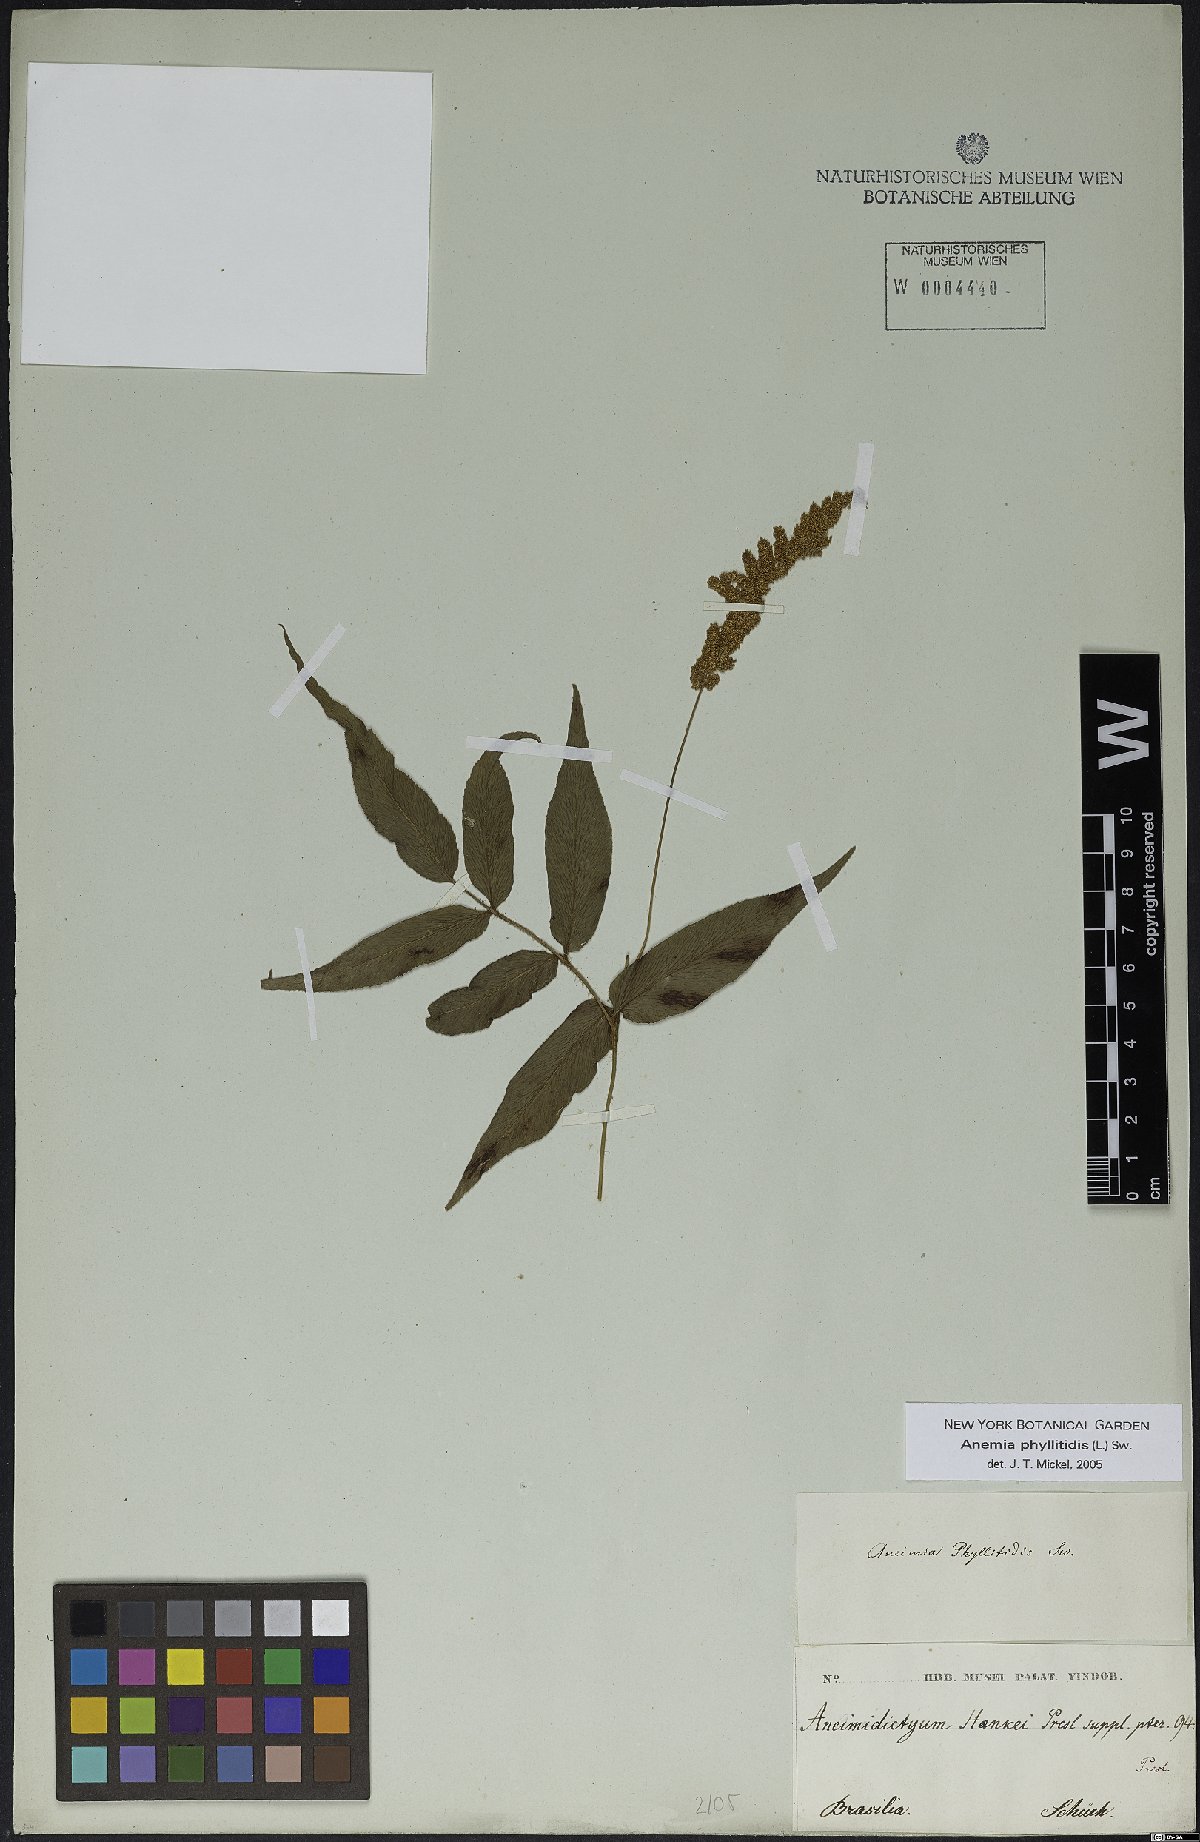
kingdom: Plantae
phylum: Tracheophyta
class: Polypodiopsida
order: Schizaeales
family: Anemiaceae
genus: Anemia
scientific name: Anemia phyllitidis
